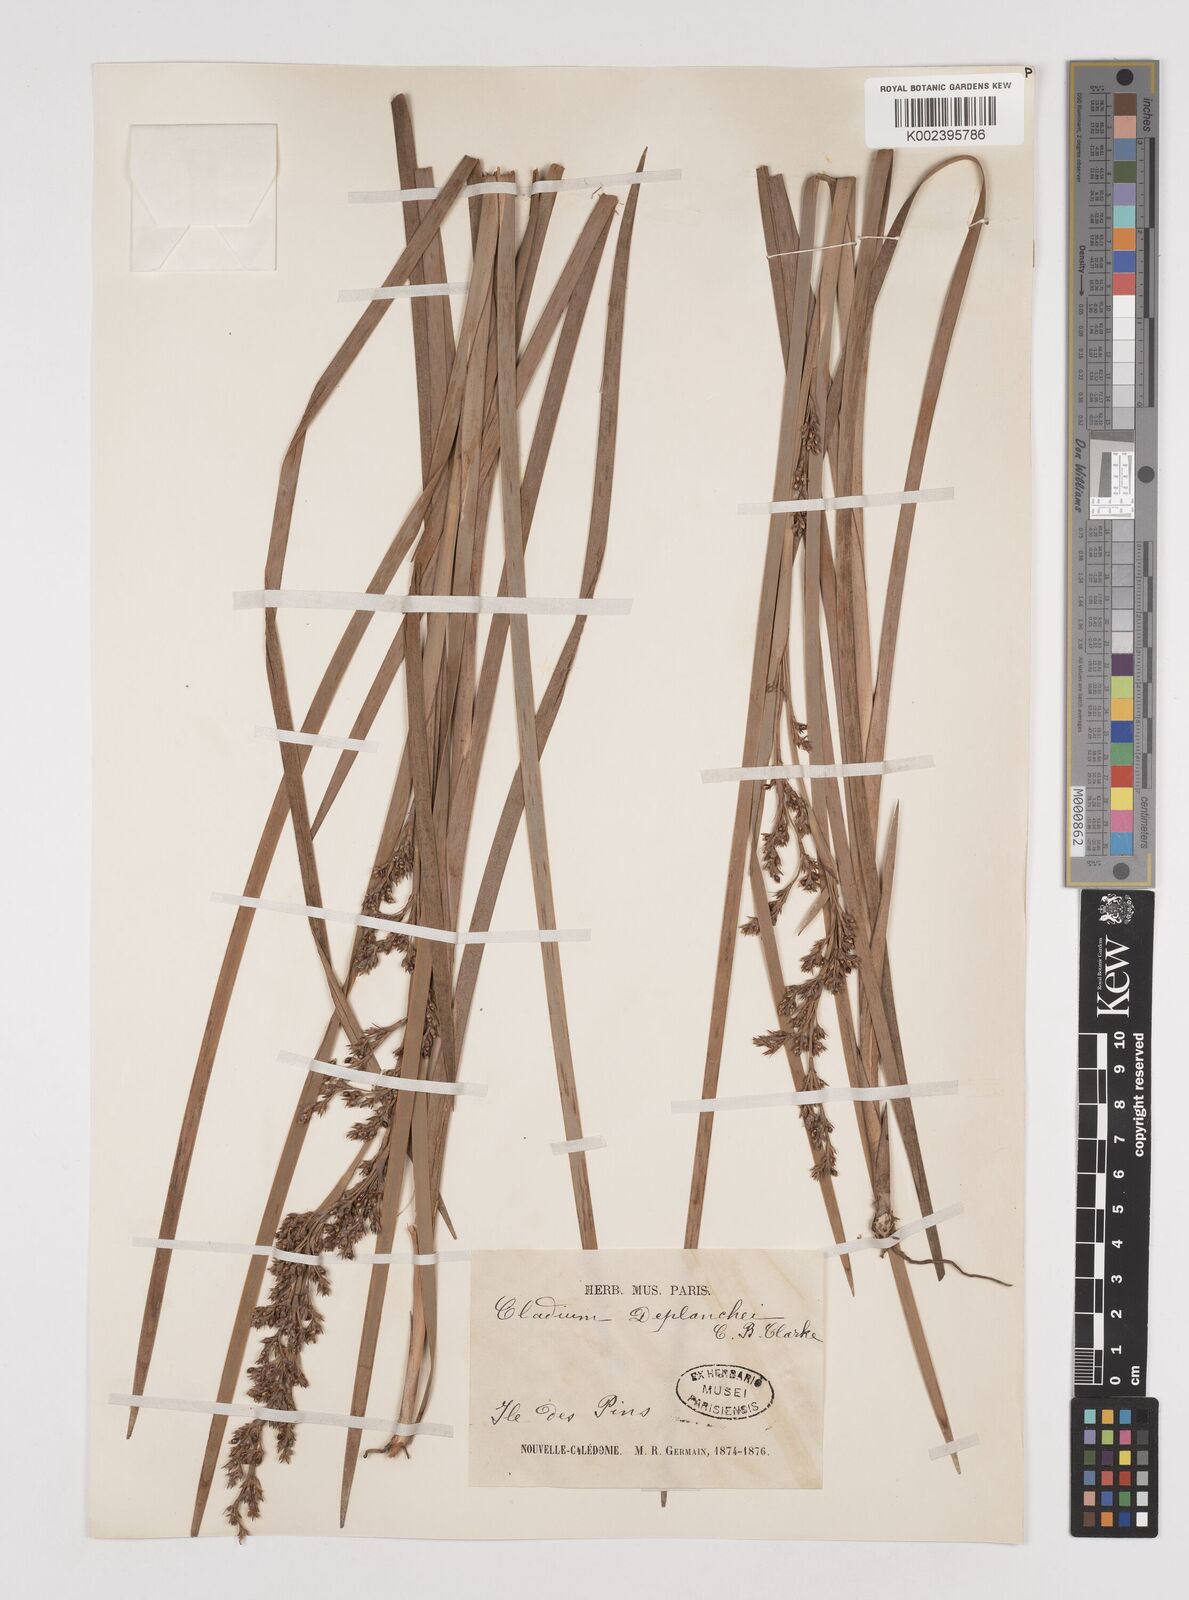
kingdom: Plantae
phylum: Tracheophyta
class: Liliopsida
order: Poales
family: Cyperaceae
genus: Machaerina
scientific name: Machaerina deplanchei
